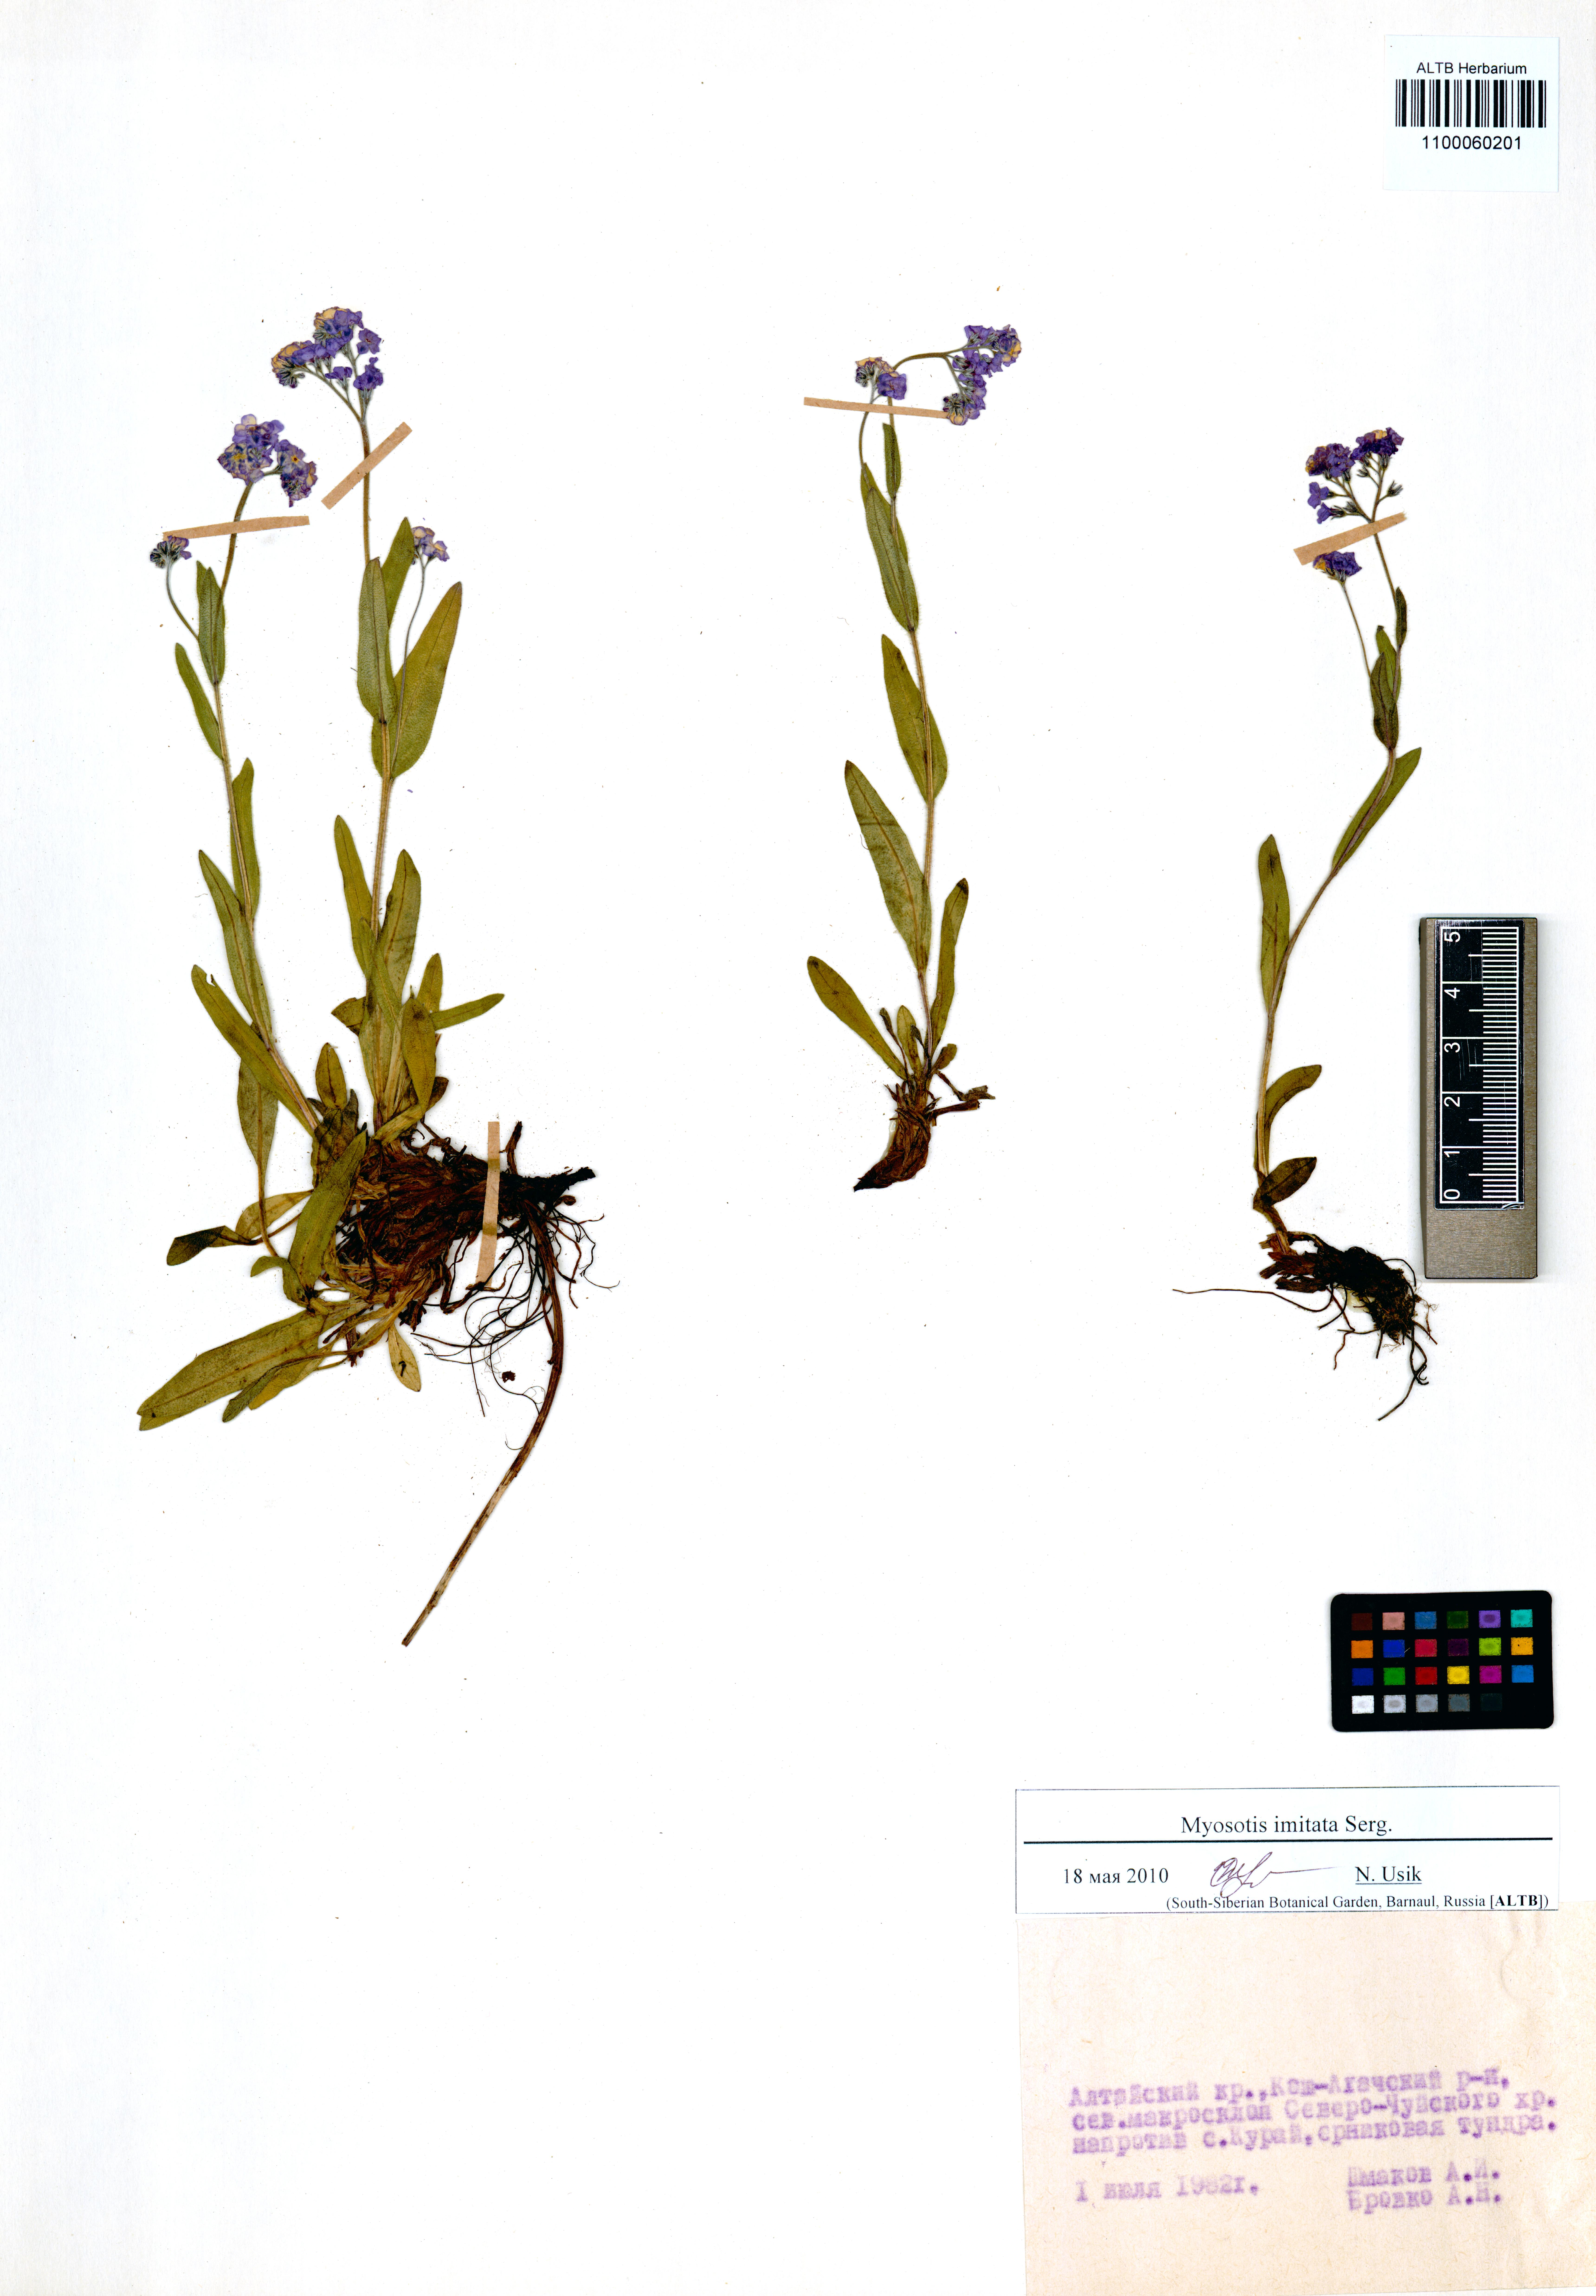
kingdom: Plantae
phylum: Tracheophyta
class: Magnoliopsida
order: Boraginales
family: Boraginaceae
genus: Myosotis
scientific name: Myosotis imitata
